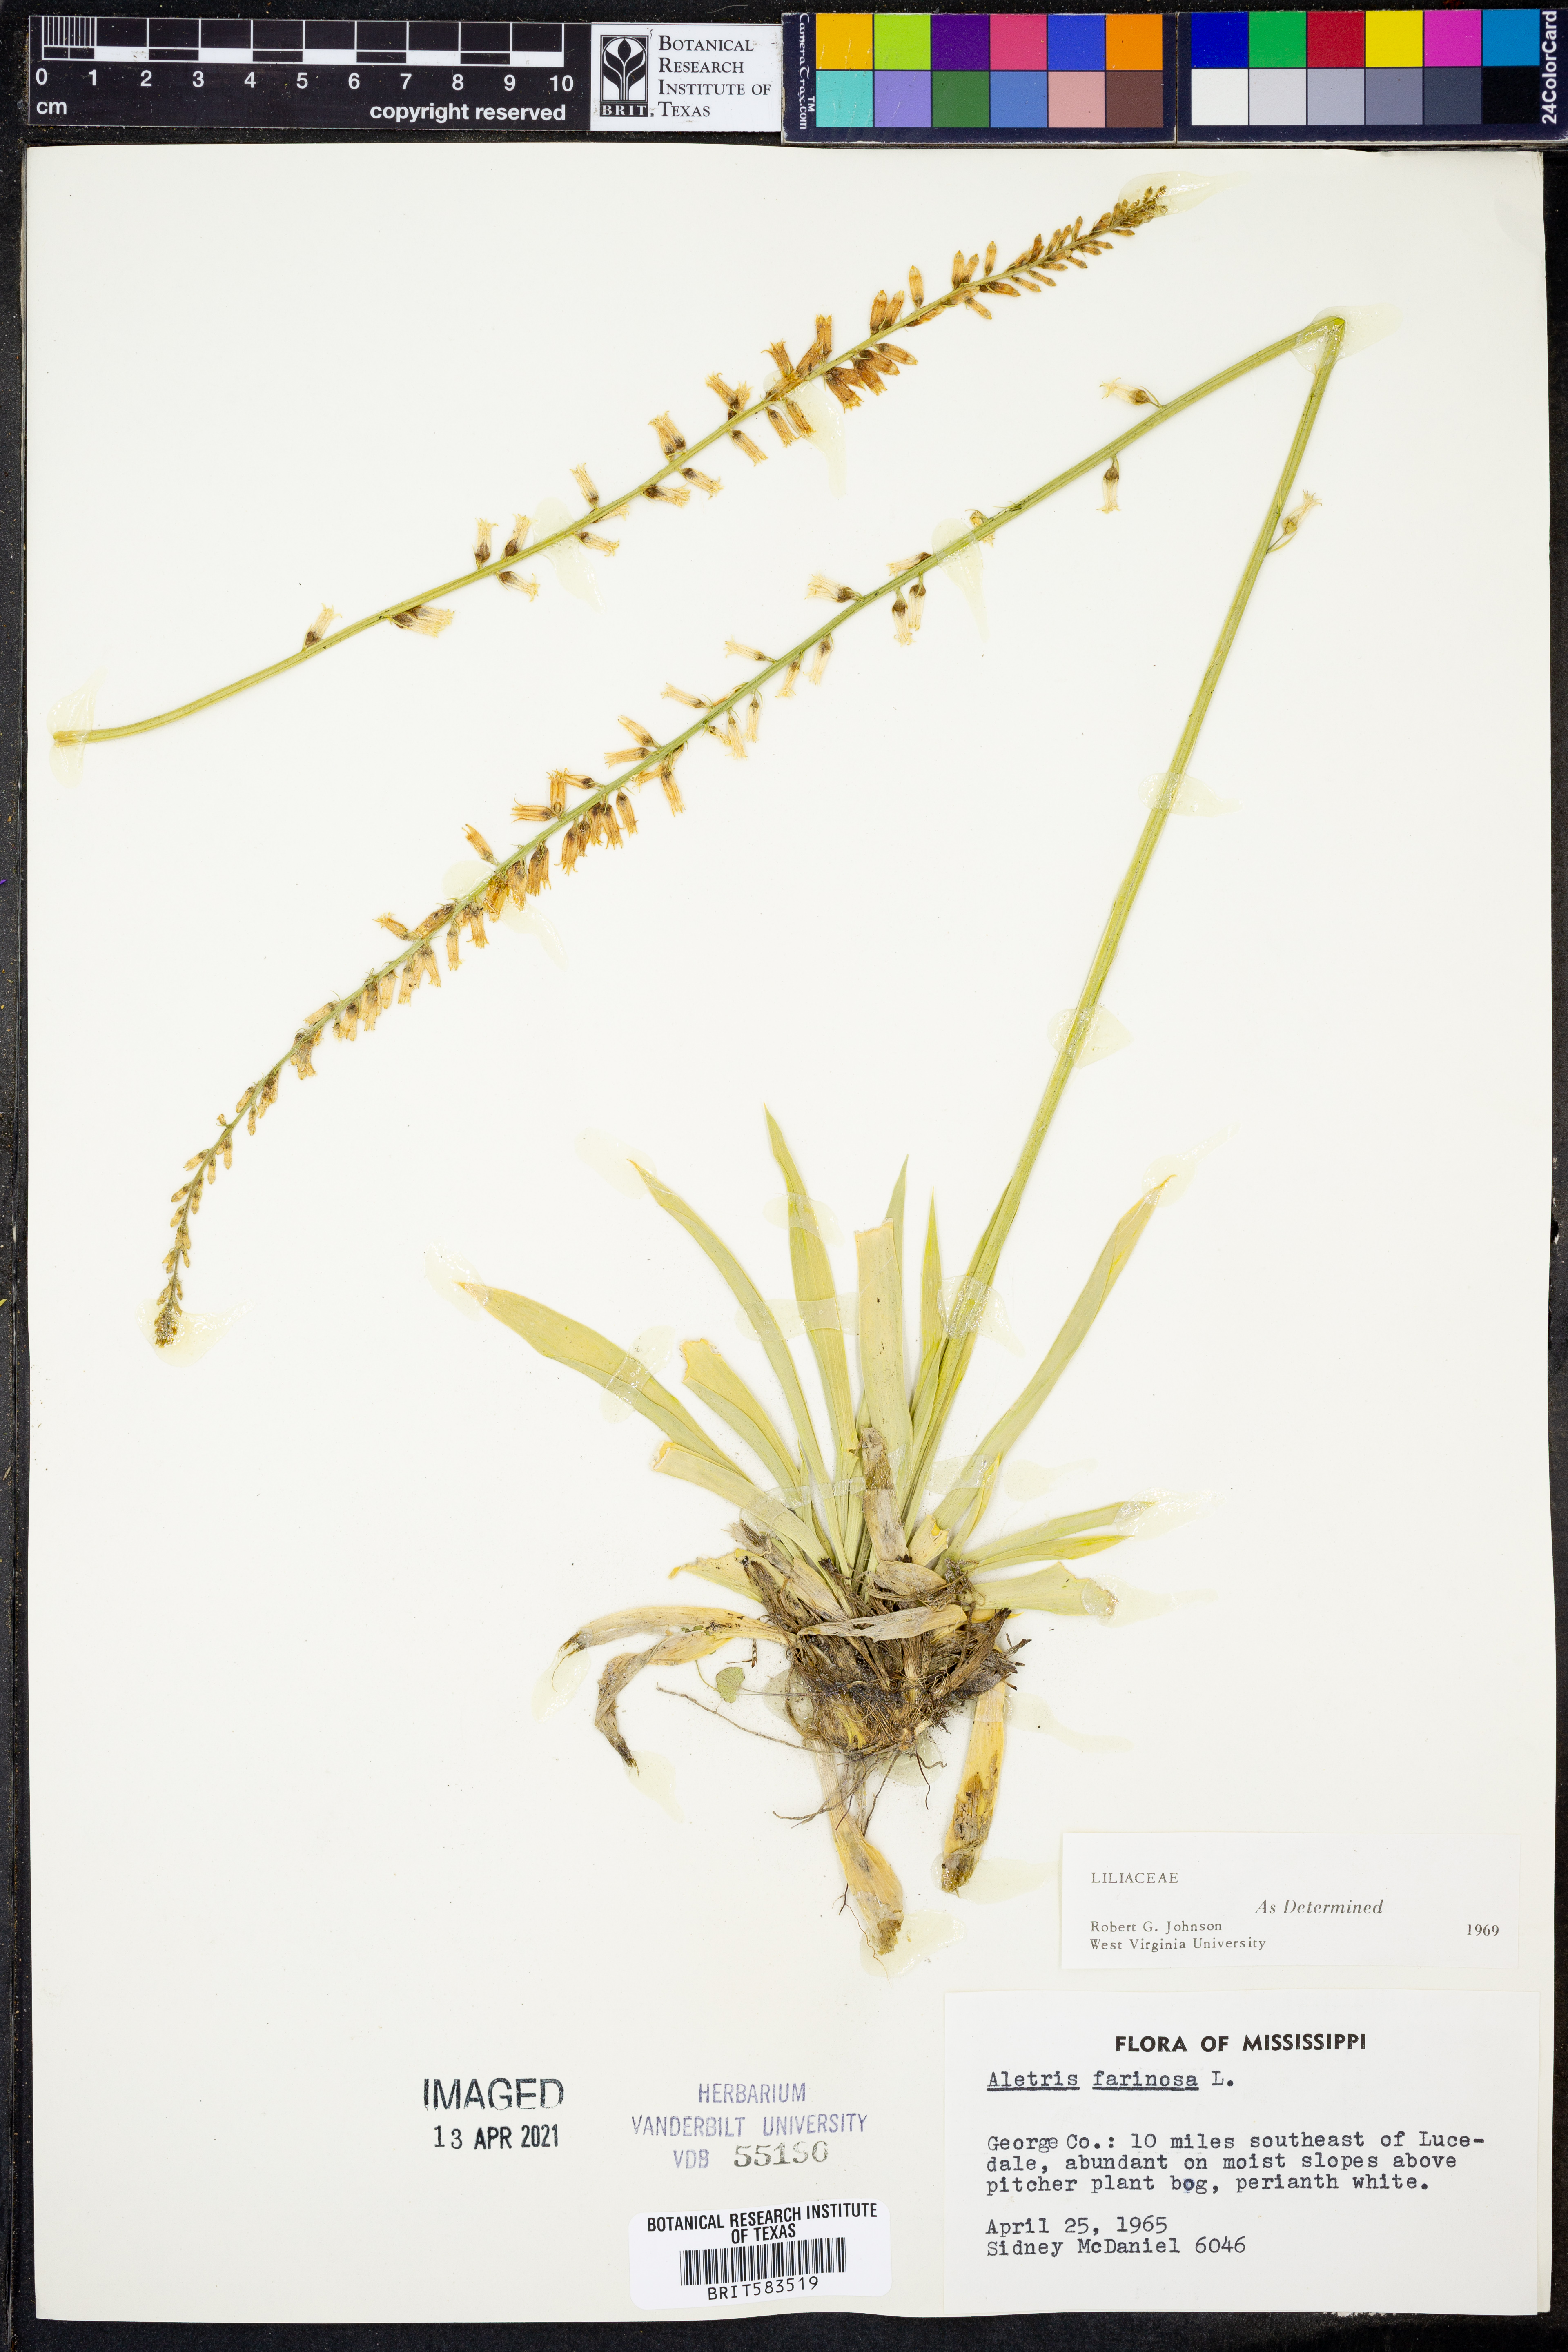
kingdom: Plantae
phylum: Tracheophyta
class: Liliopsida
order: Dioscoreales
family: Nartheciaceae
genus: Aletris
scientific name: Aletris farinosa
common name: Colicroot
